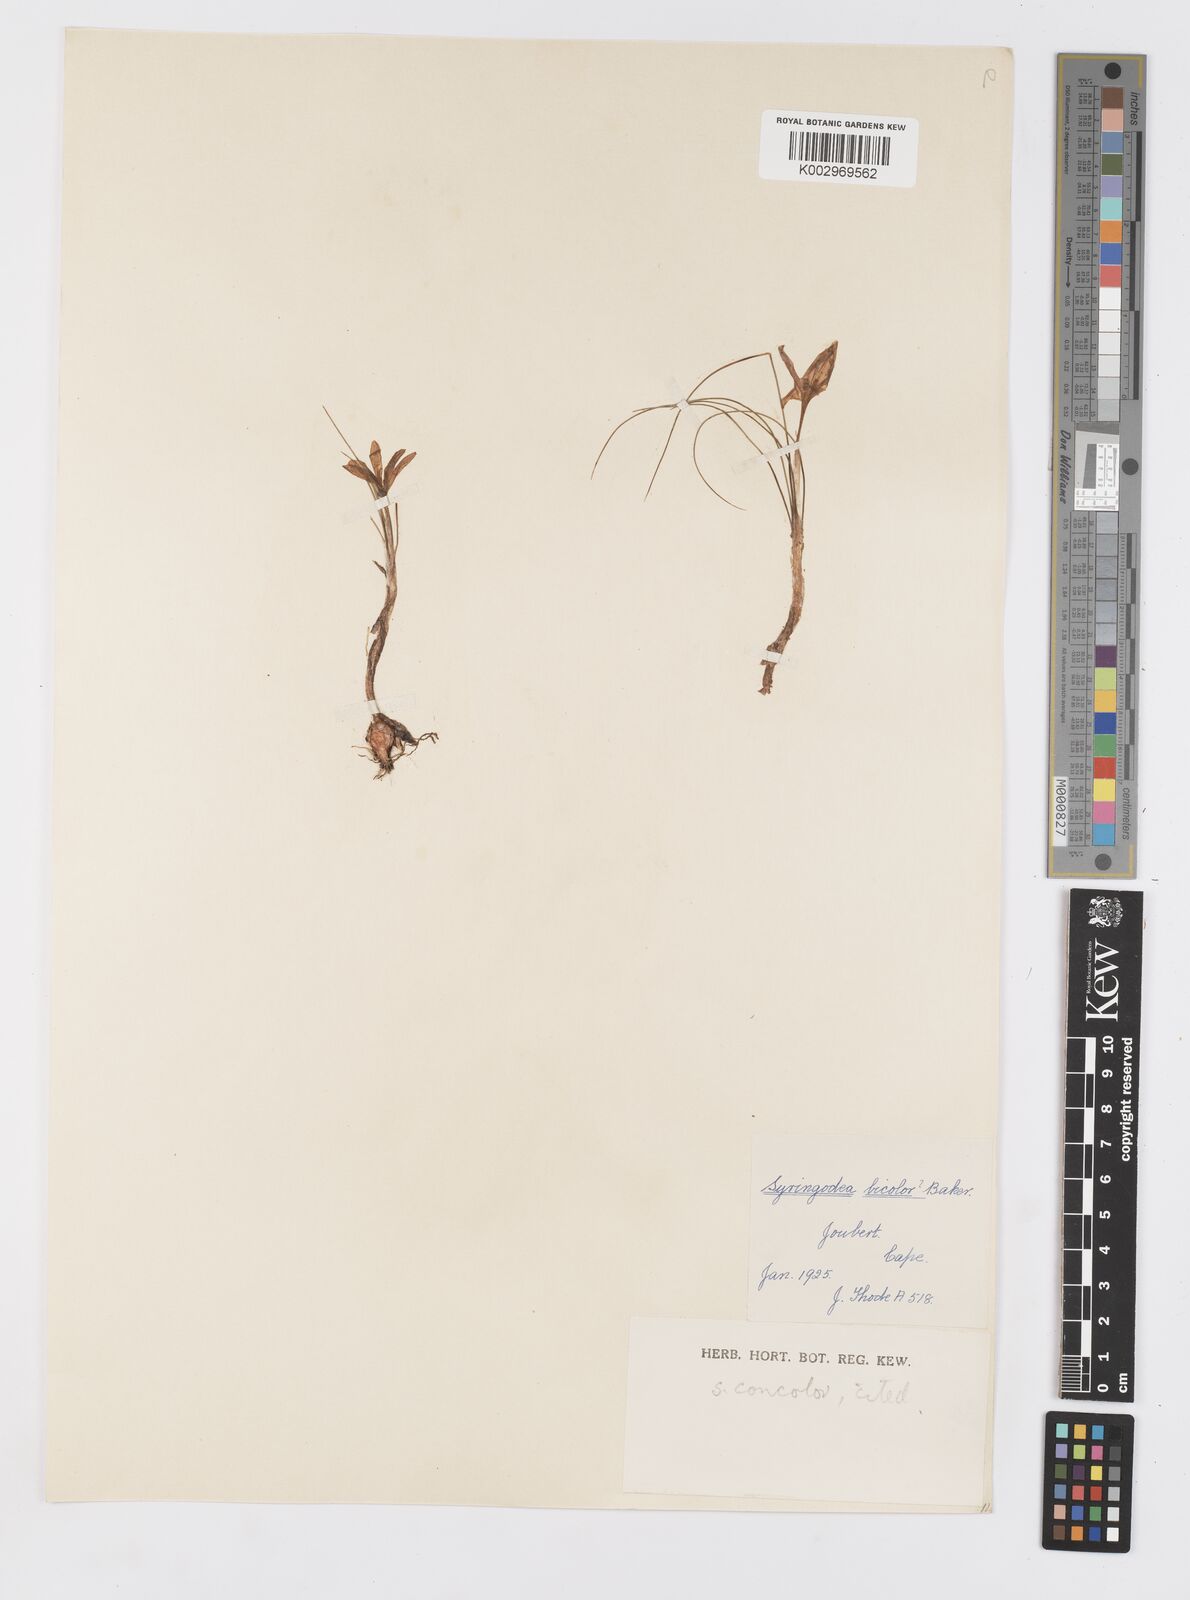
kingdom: Plantae
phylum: Tracheophyta
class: Liliopsida
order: Asparagales
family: Iridaceae
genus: Syringodea
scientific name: Syringodea concolor
